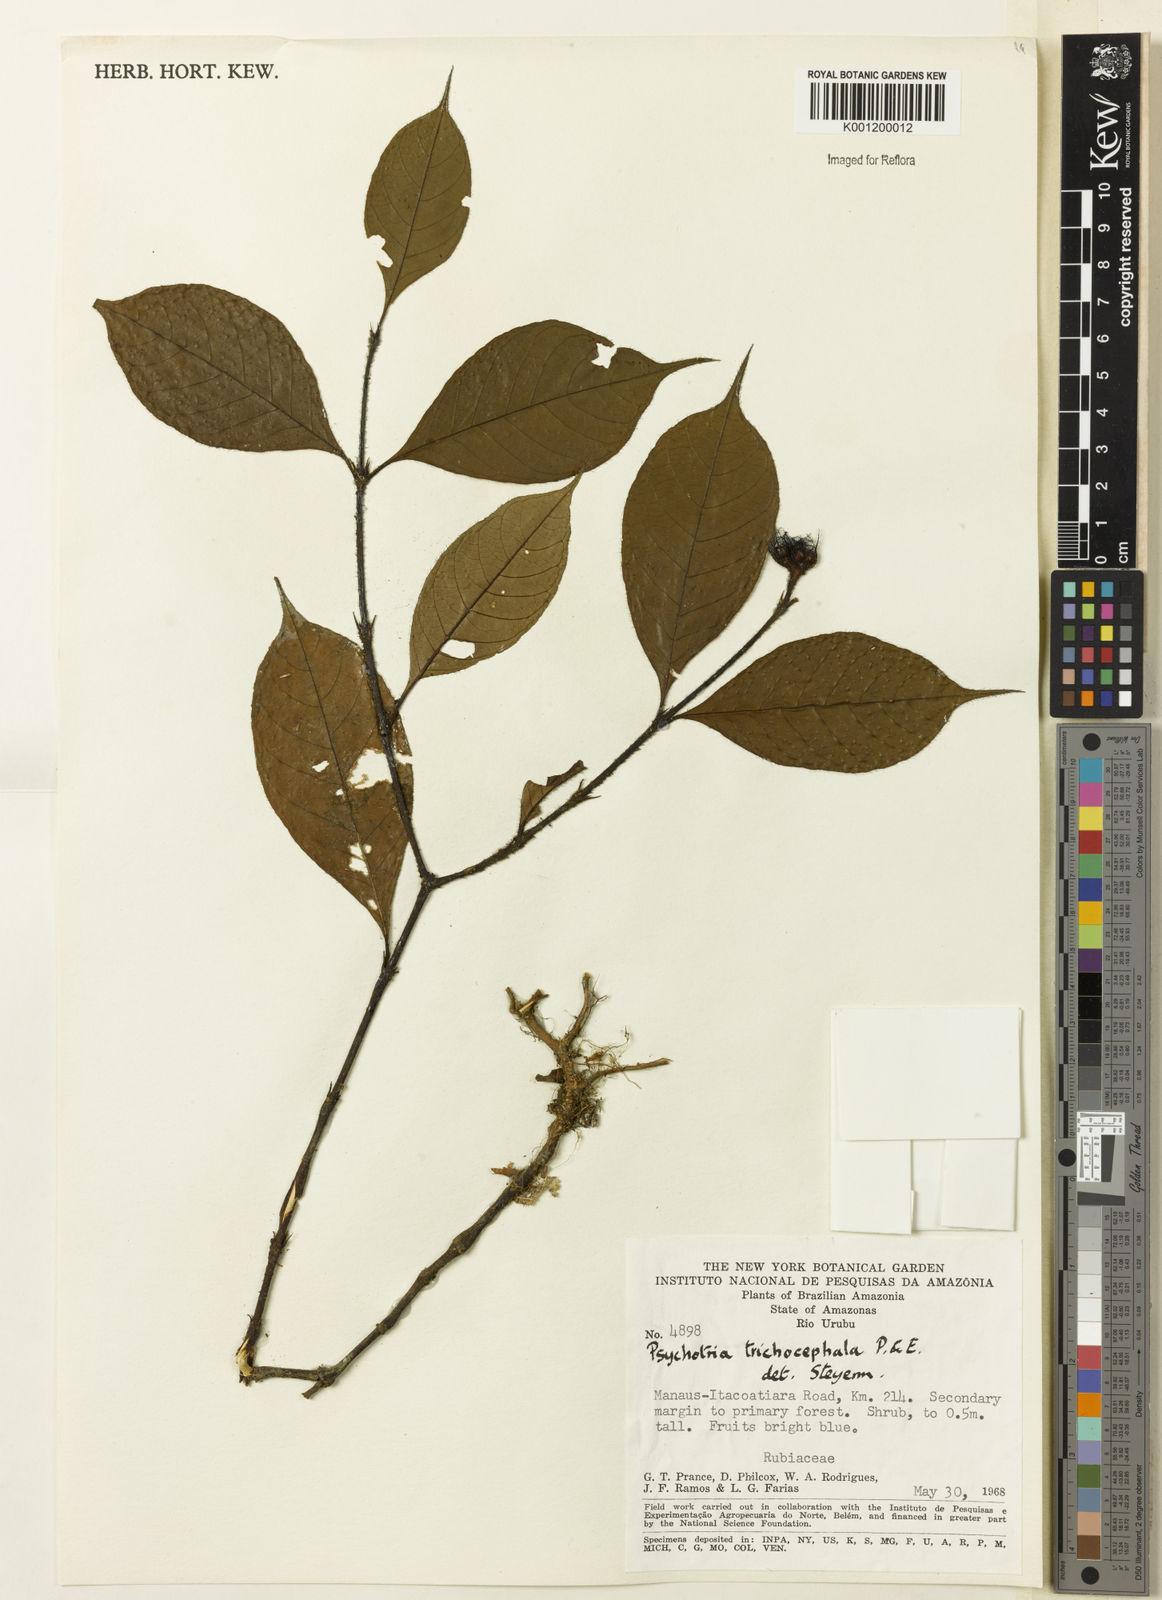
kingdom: Plantae
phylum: Tracheophyta
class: Magnoliopsida
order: Gentianales
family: Rubiaceae
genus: Palicourea
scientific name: Palicourea trichocephala
